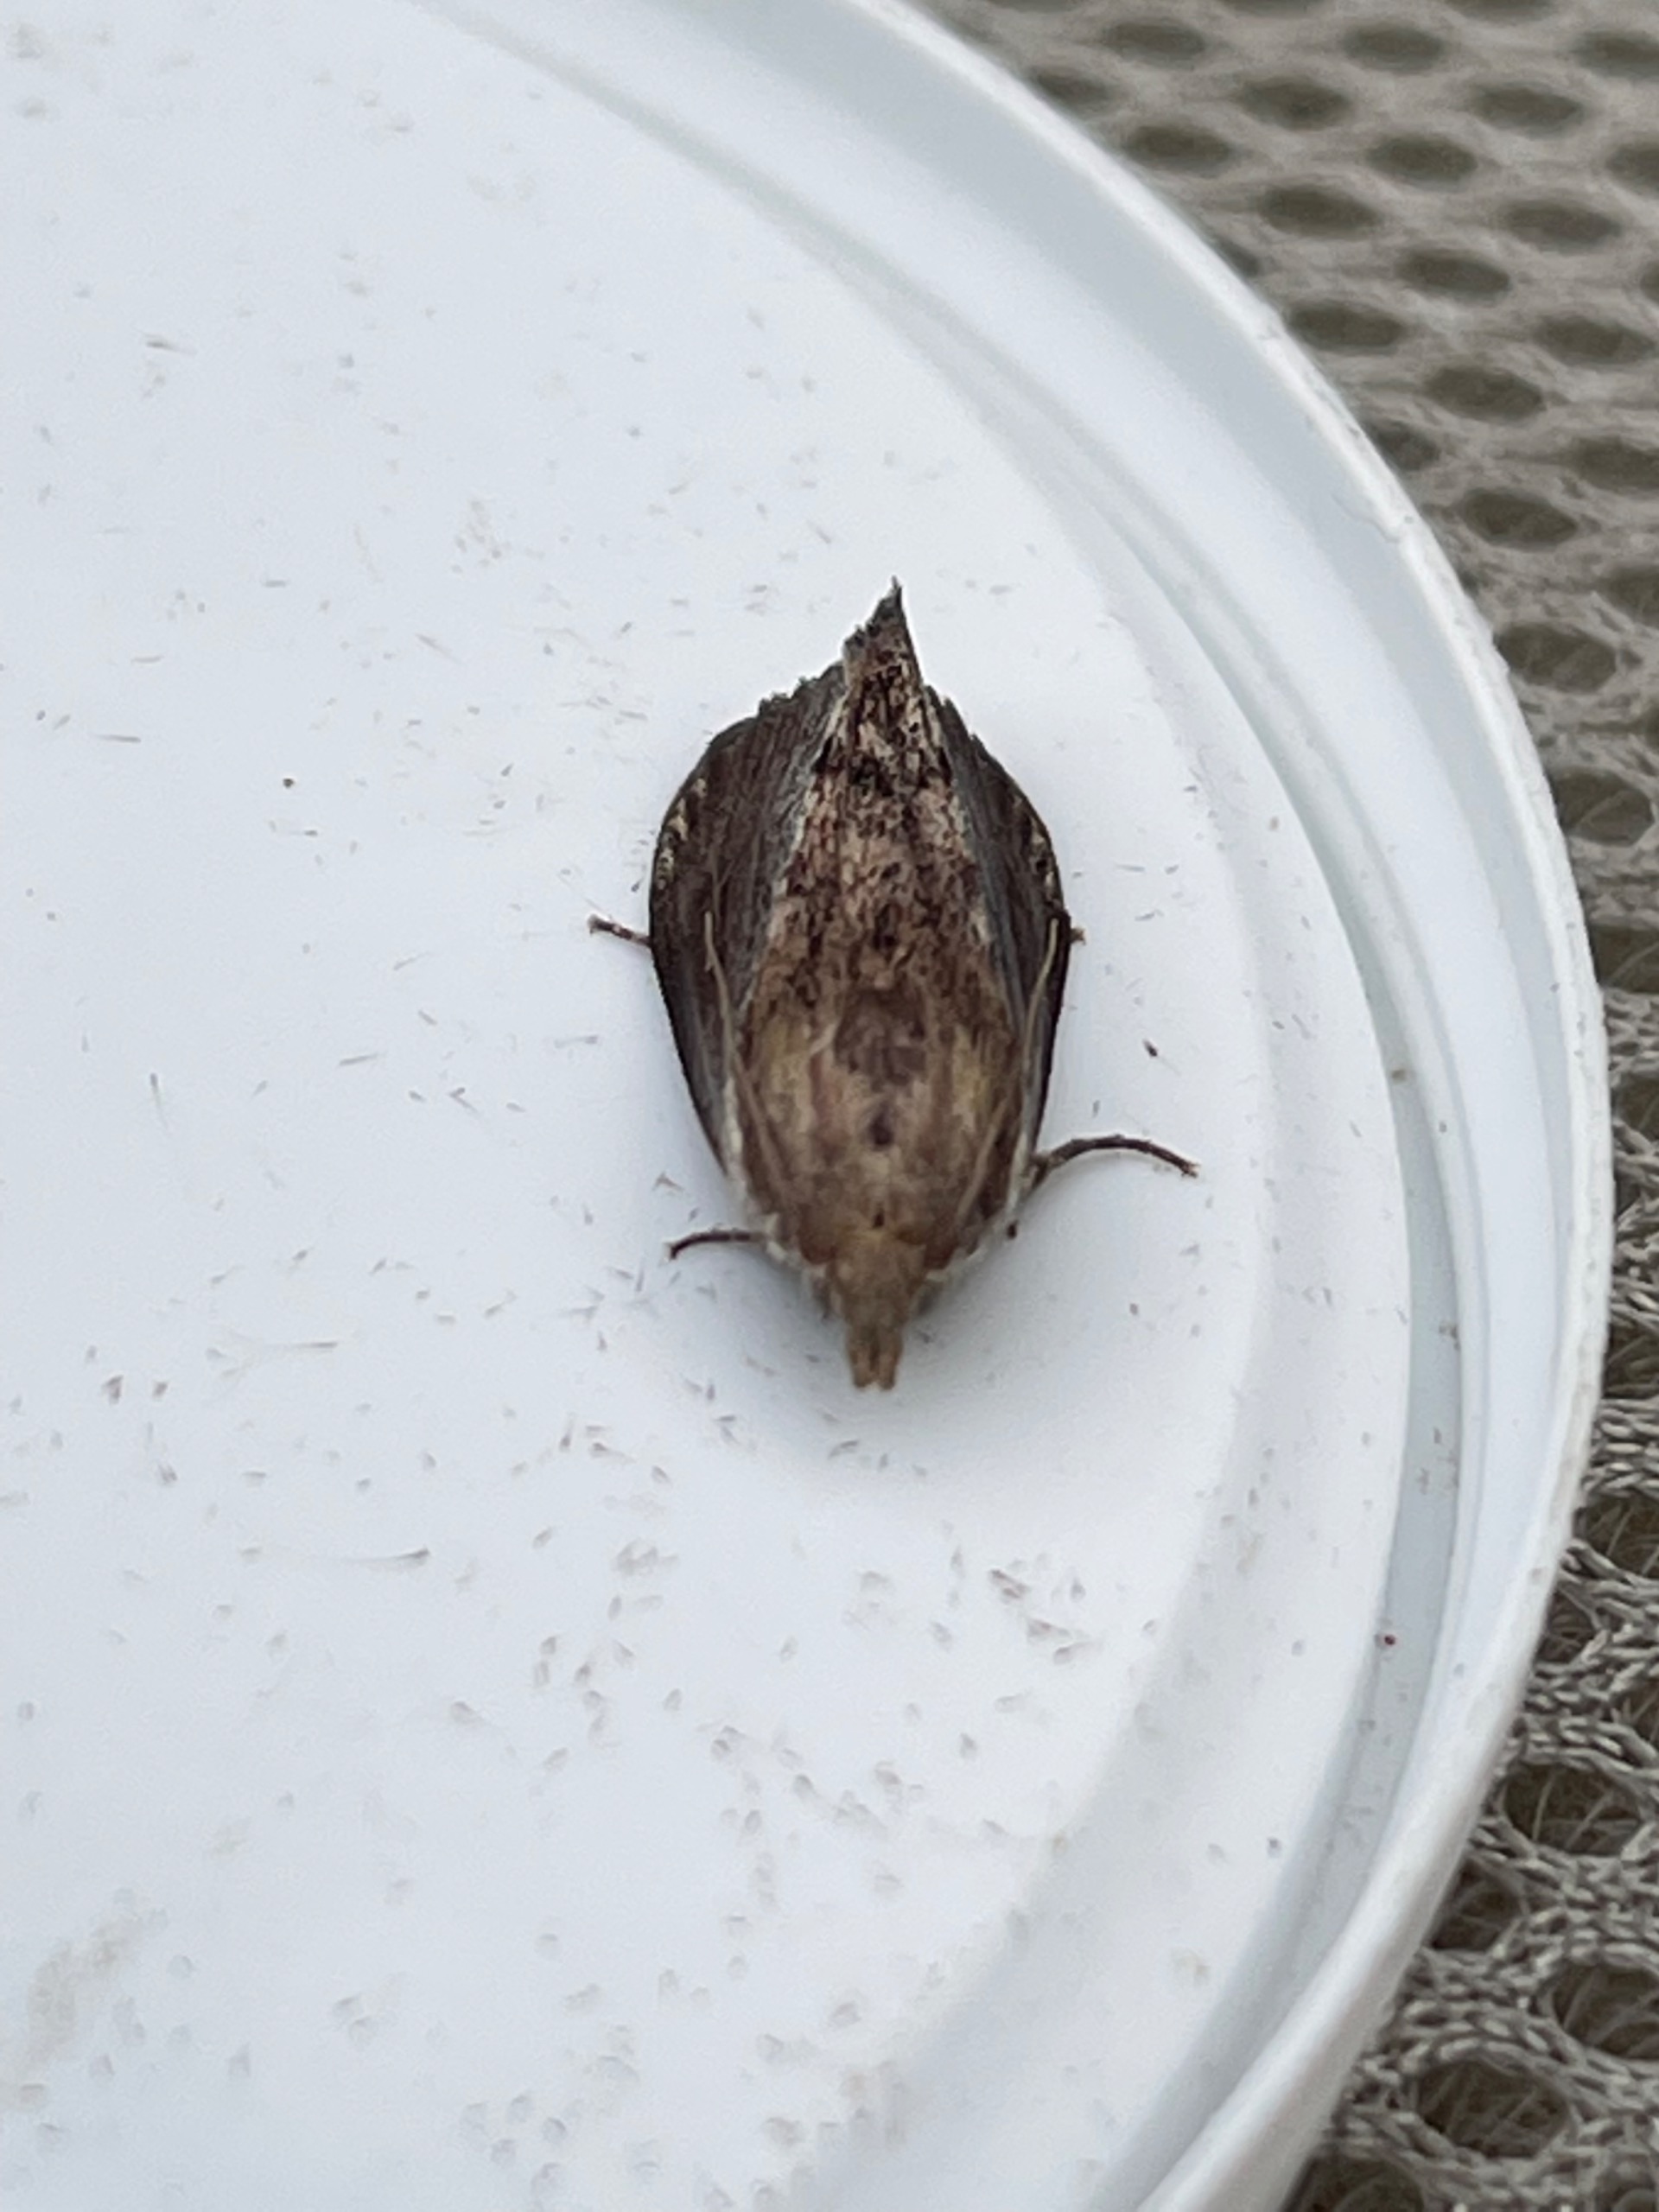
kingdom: Animalia
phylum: Arthropoda
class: Insecta
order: Lepidoptera
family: Pyralidae
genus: Galleria
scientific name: Galleria mellonella
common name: Stort voksmøl
